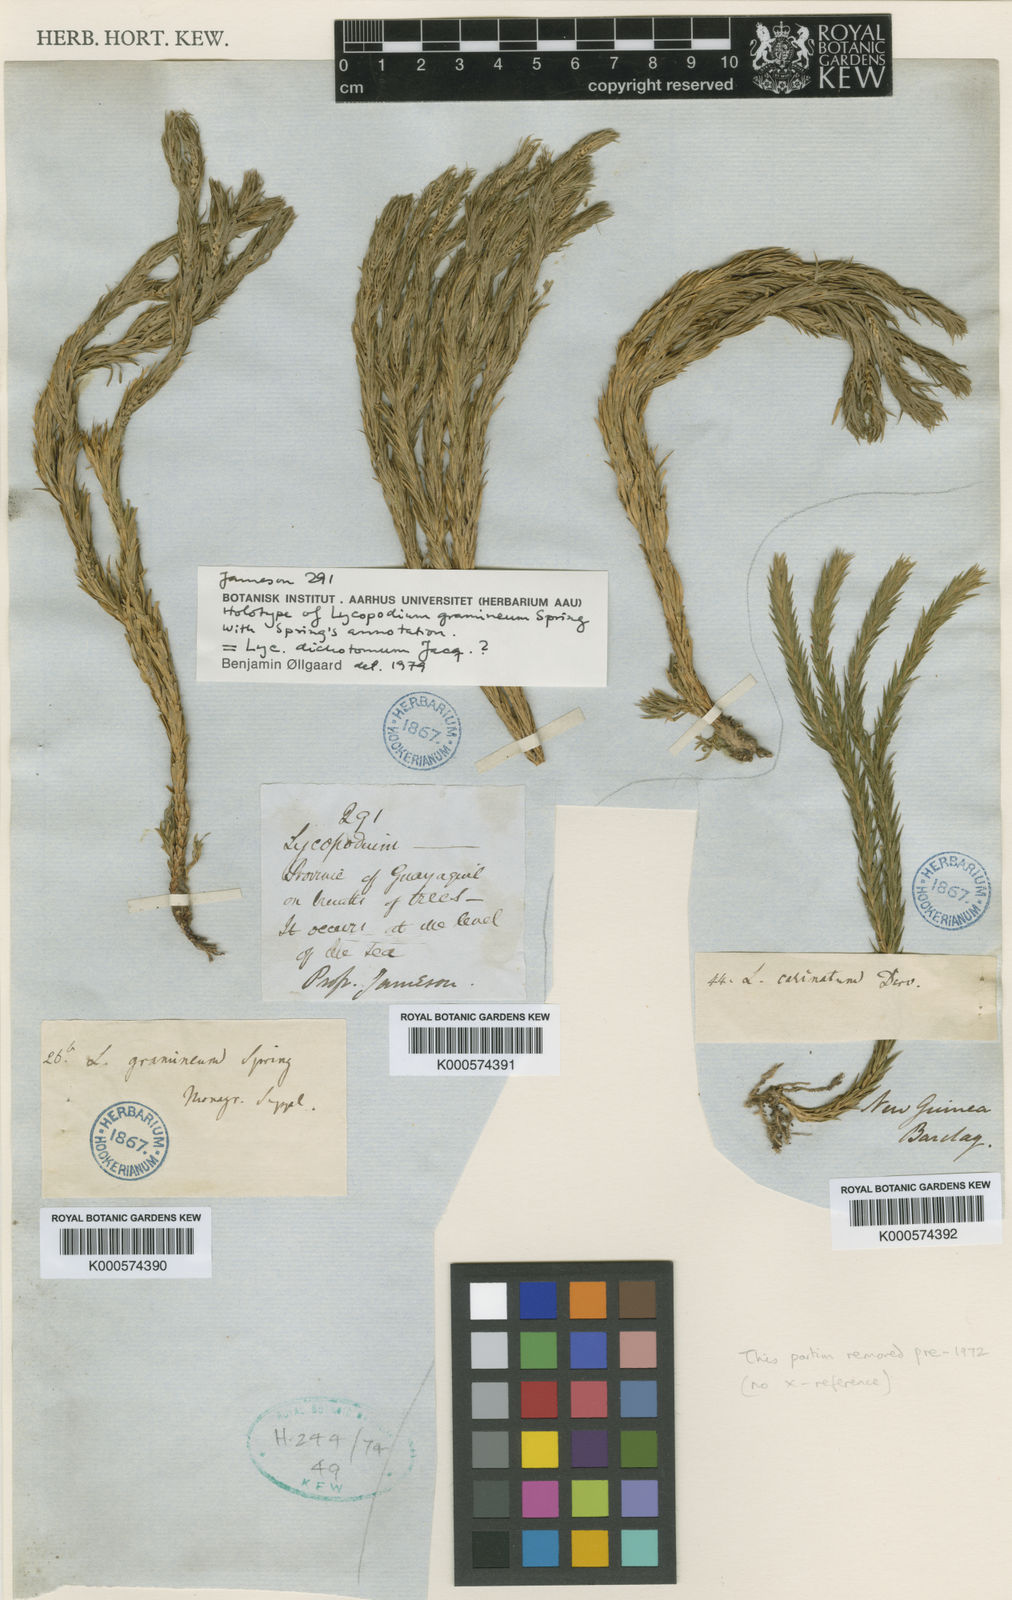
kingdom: Plantae
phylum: Tracheophyta
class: Lycopodiopsida
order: Lycopodiales
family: Lycopodiaceae
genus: Phlegmariurus
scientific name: Phlegmariurus dichotomus
